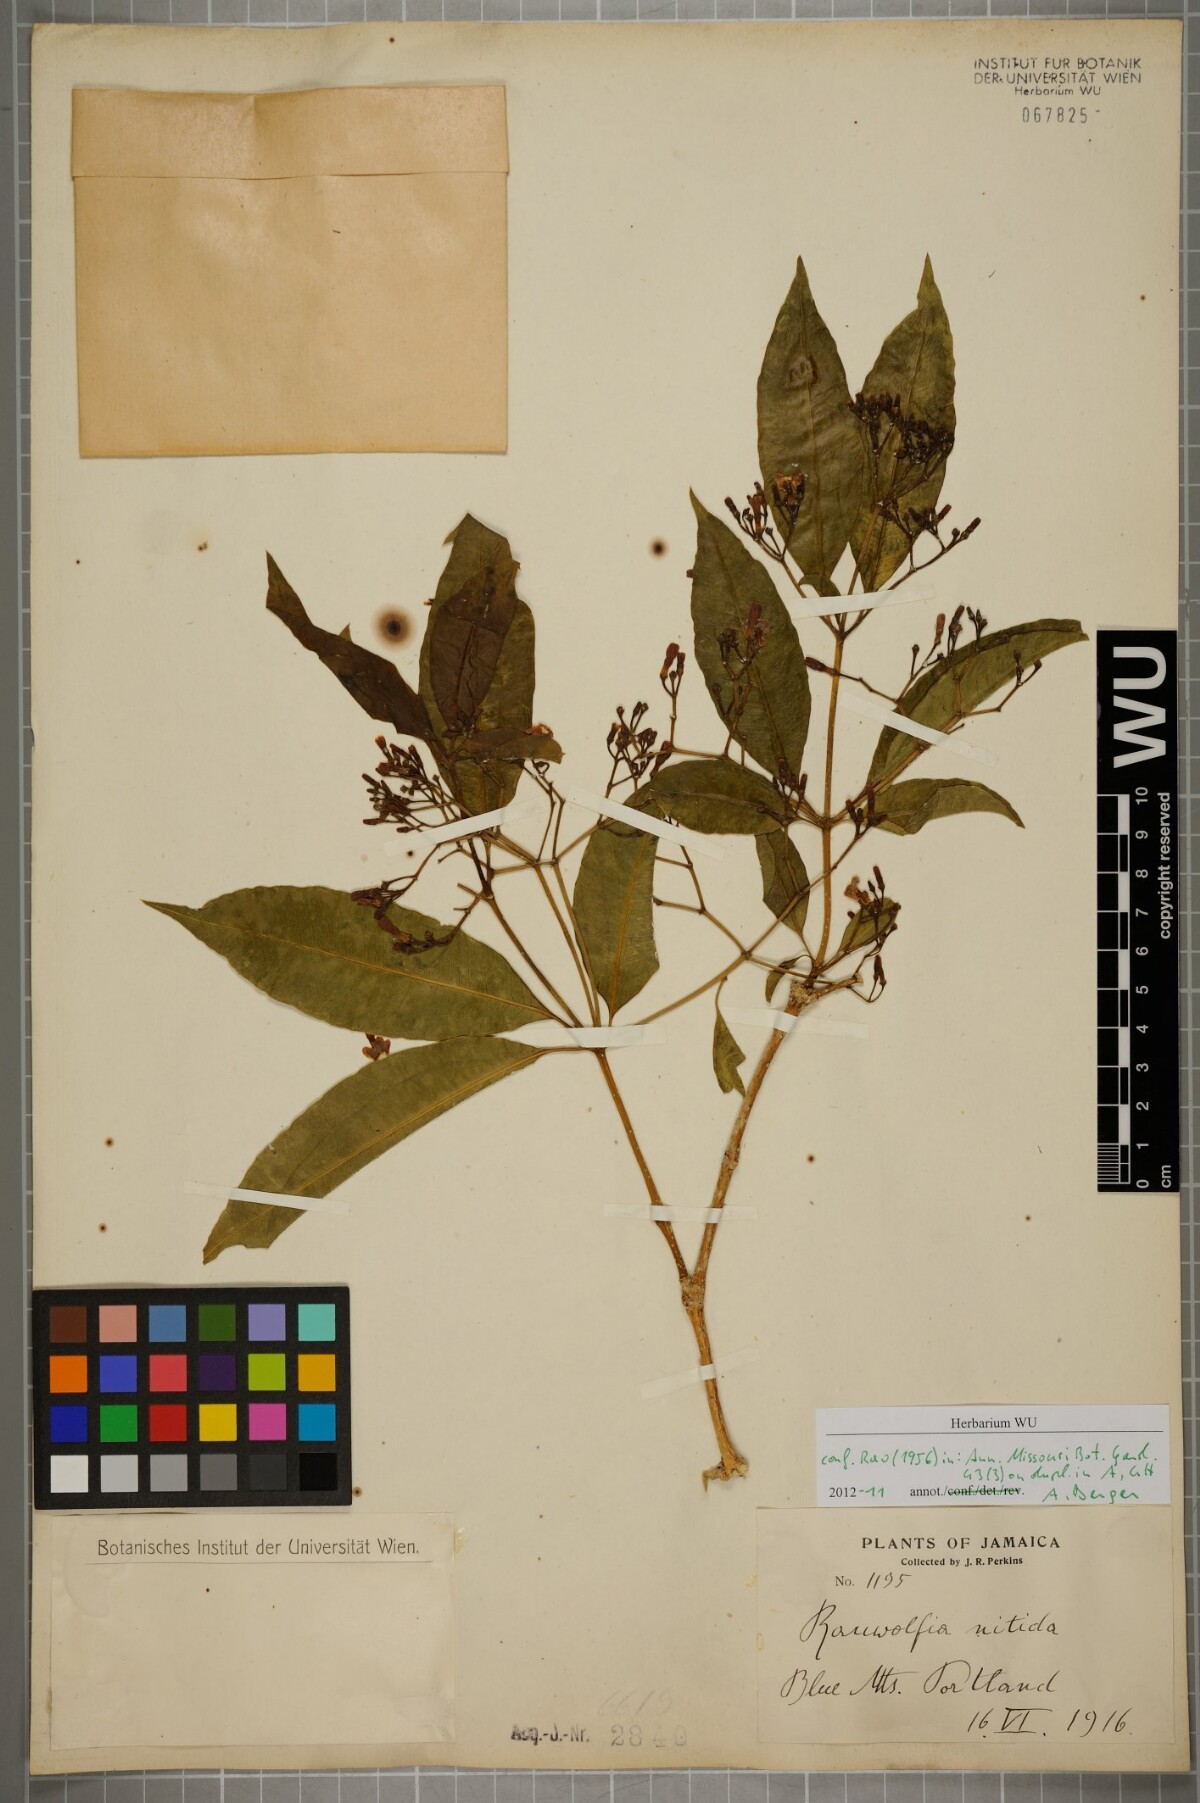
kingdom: Plantae
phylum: Tracheophyta
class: Magnoliopsida
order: Gentianales
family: Apocynaceae
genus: Rauvolfia
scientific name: Rauvolfia nitida
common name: Bitter-ash
